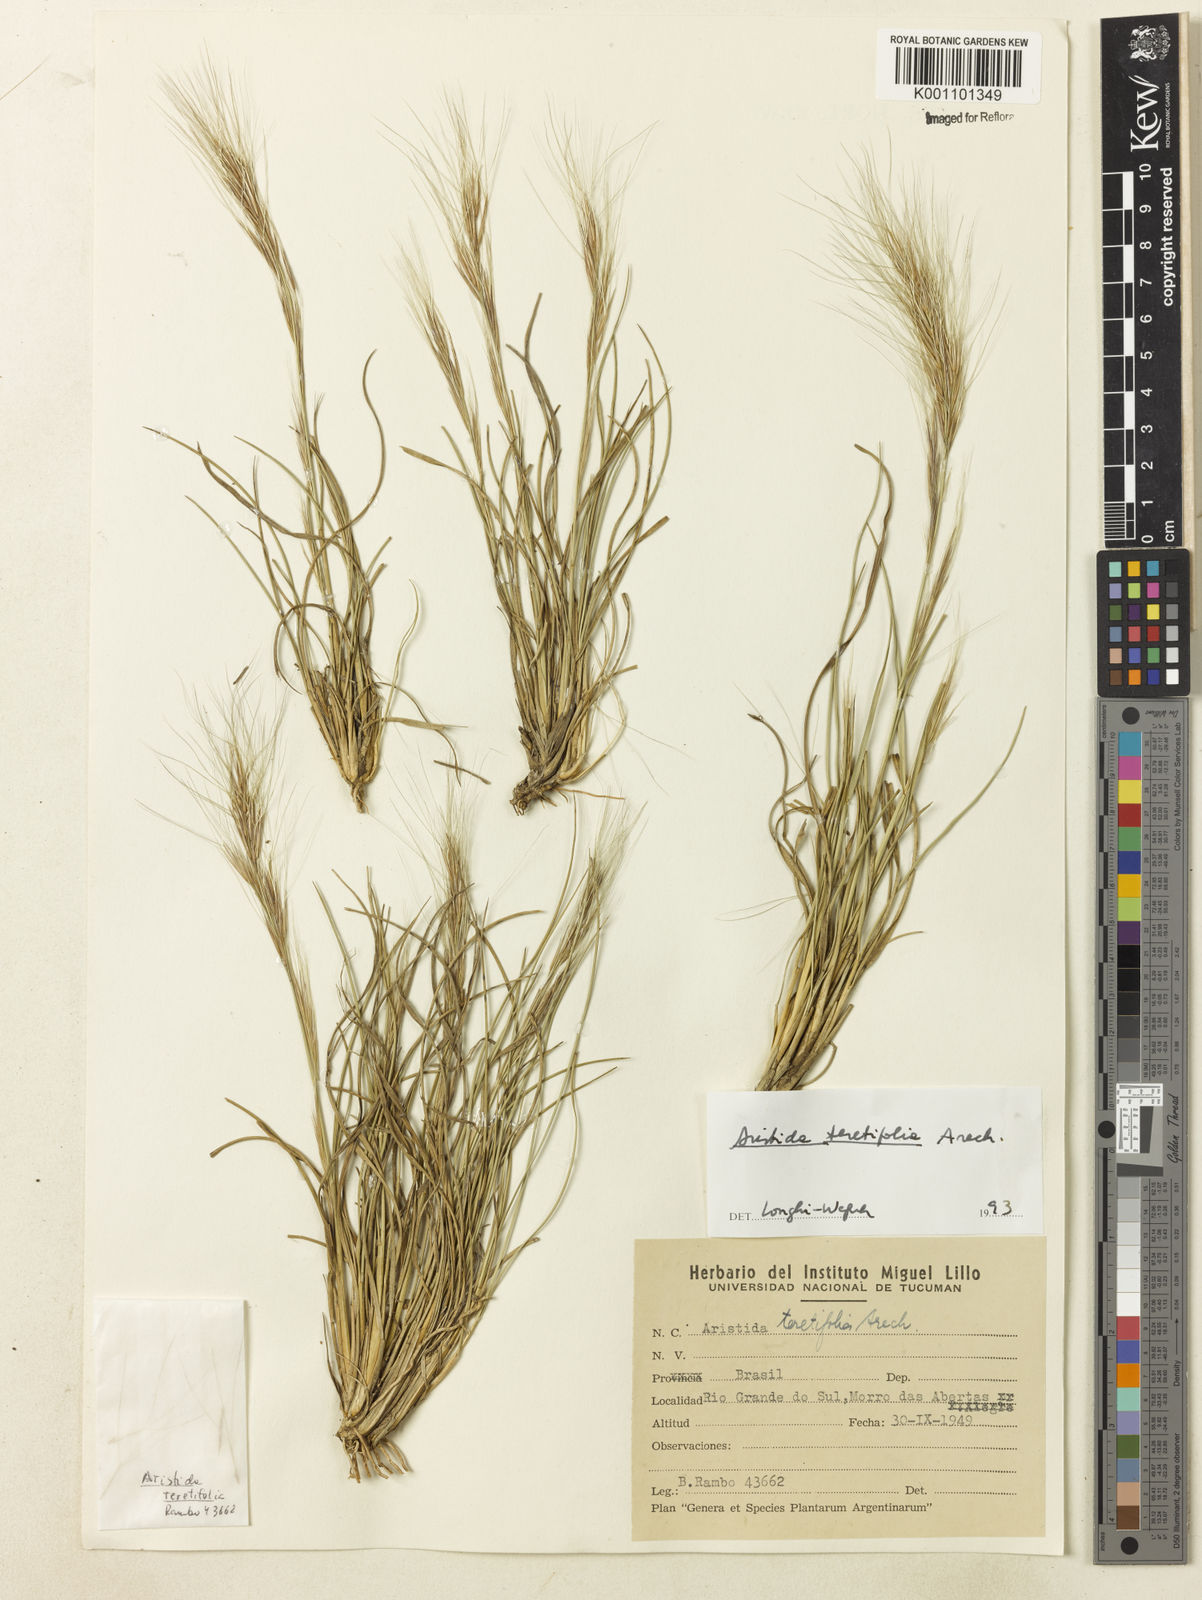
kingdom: Plantae
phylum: Tracheophyta
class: Liliopsida
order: Poales
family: Poaceae
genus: Aristida
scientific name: Aristida teretifolia
